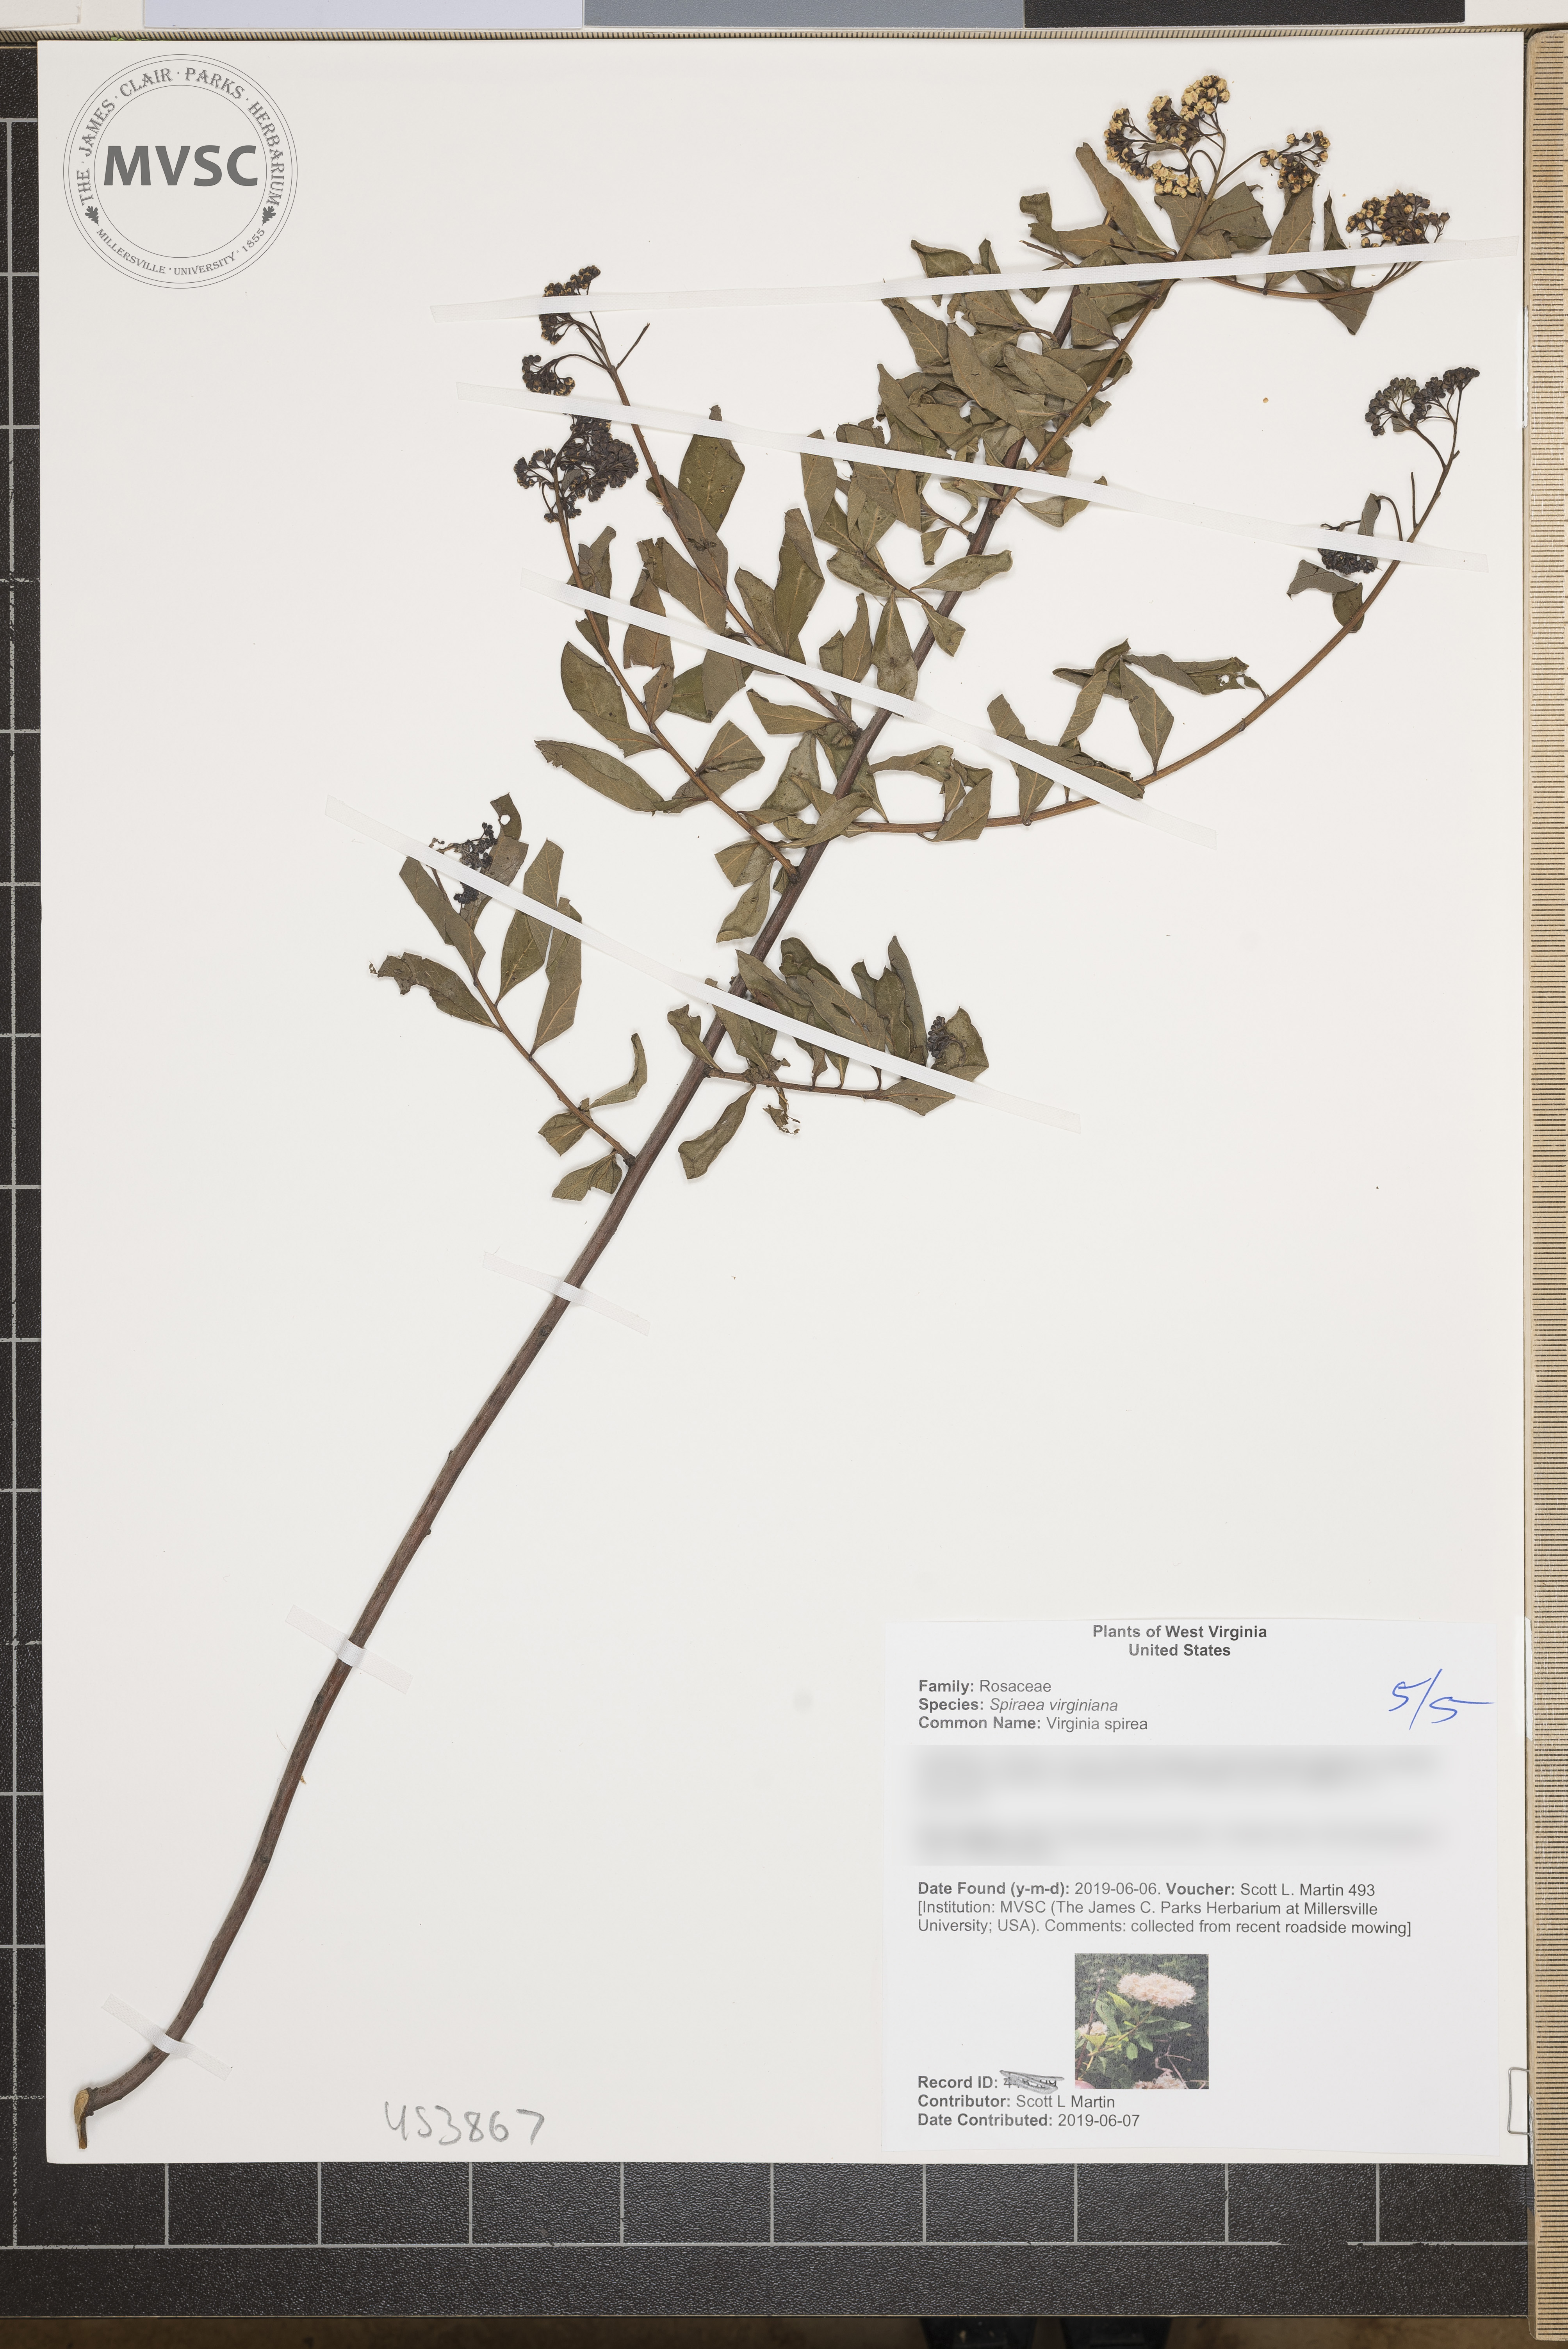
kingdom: Plantae
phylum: Tracheophyta
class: Magnoliopsida
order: Rosales
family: Rosaceae
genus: Spiraea
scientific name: Spiraea virginiana
